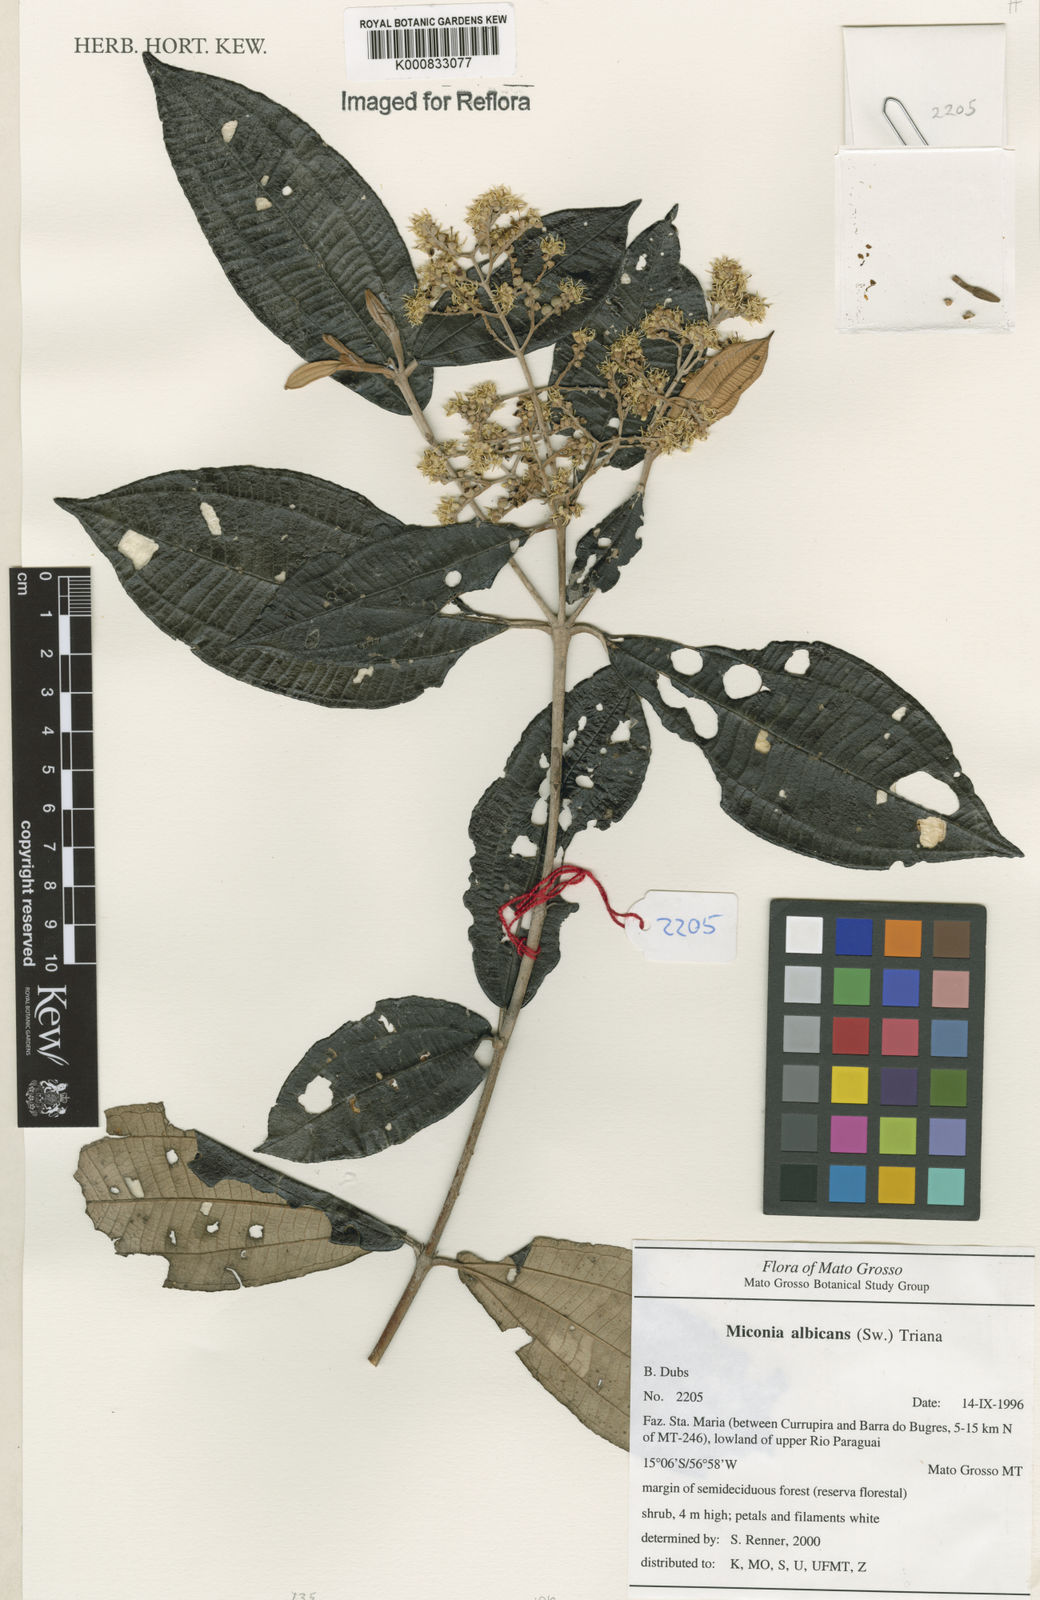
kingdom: Plantae
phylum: Tracheophyta
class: Magnoliopsida
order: Myrtales
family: Melastomataceae
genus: Miconia
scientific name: Miconia albicans
